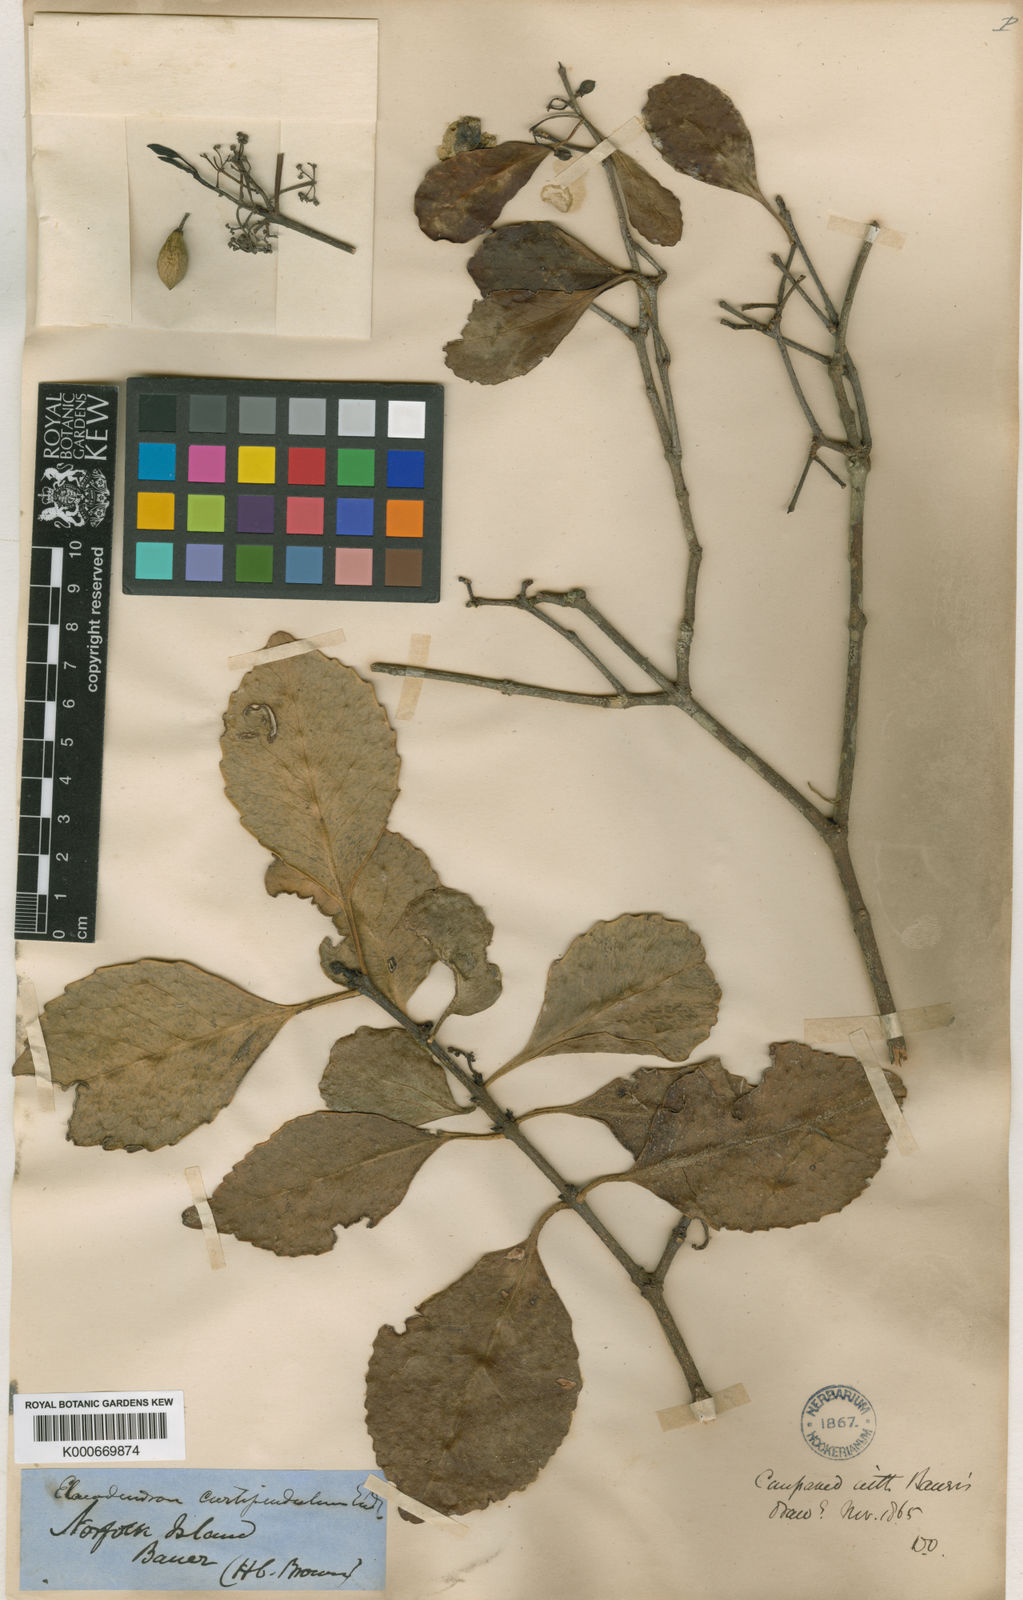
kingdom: Plantae
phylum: Tracheophyta
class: Magnoliopsida
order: Celastrales
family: Celastraceae
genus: Elaeodendron
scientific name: Elaeodendron curtipendulum
